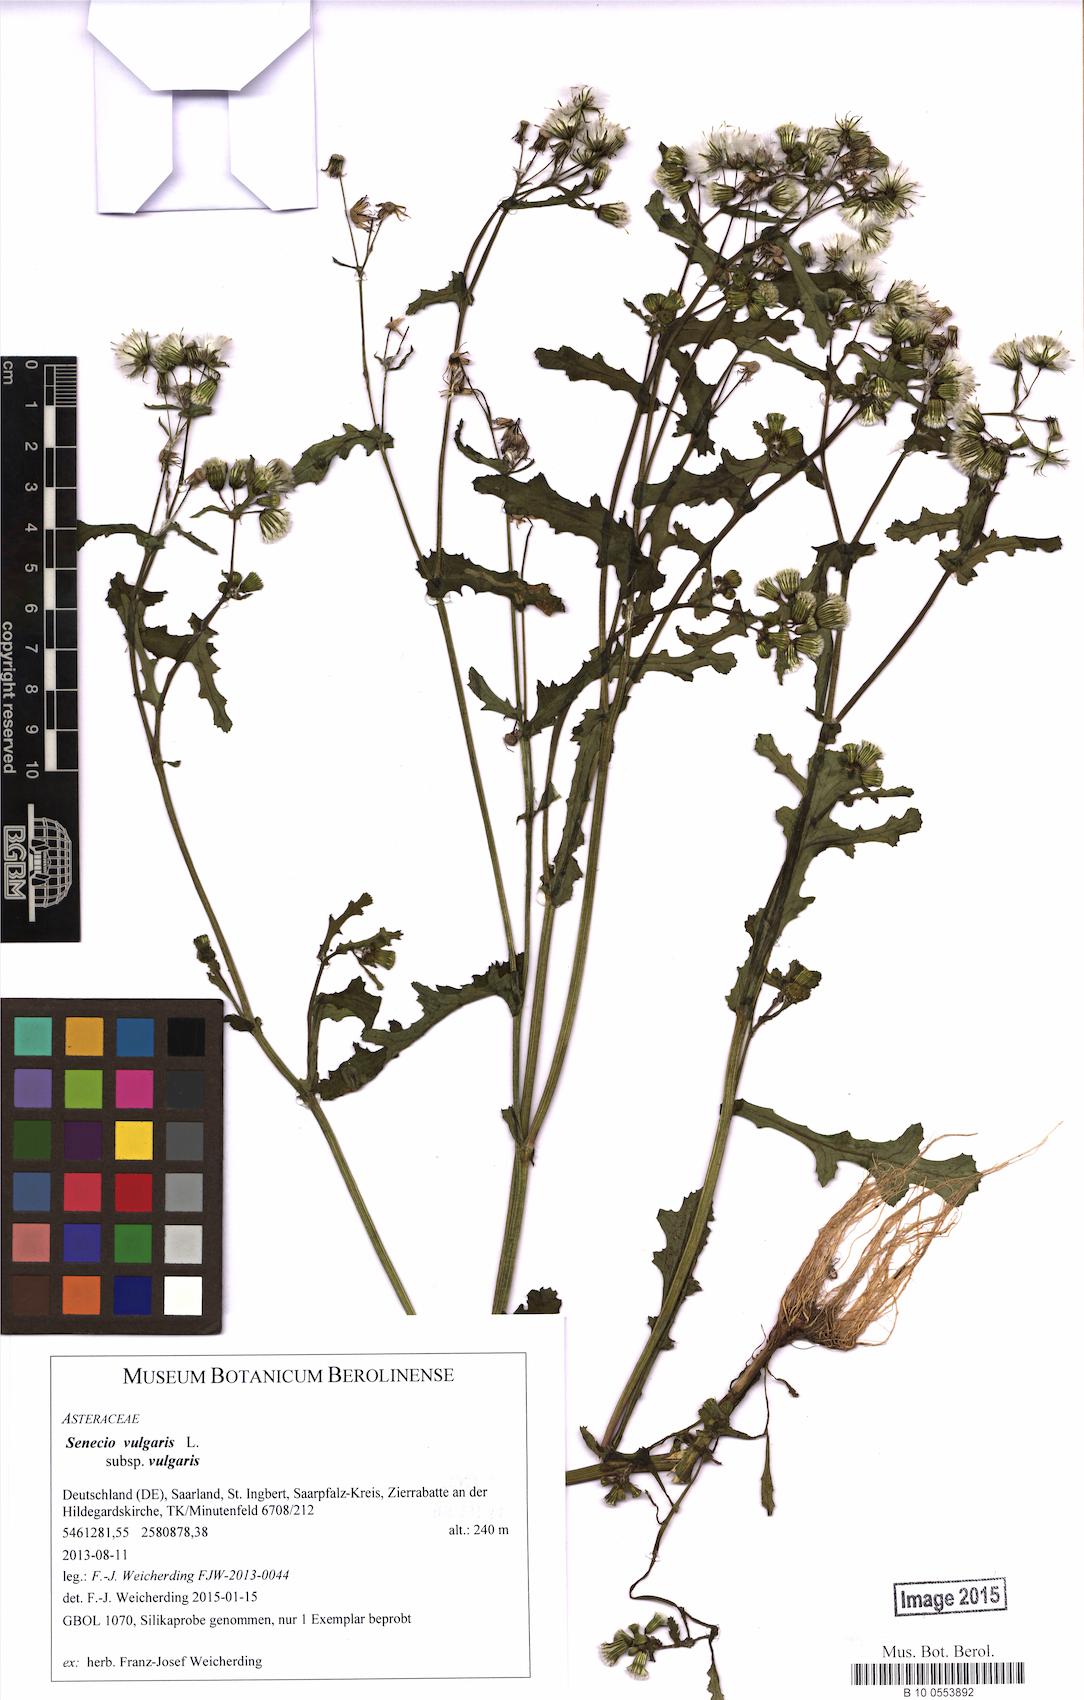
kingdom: Plantae
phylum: Tracheophyta
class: Magnoliopsida
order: Asterales
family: Asteraceae
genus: Senecio
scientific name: Senecio vulgaris
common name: Old-man-in-the-spring
